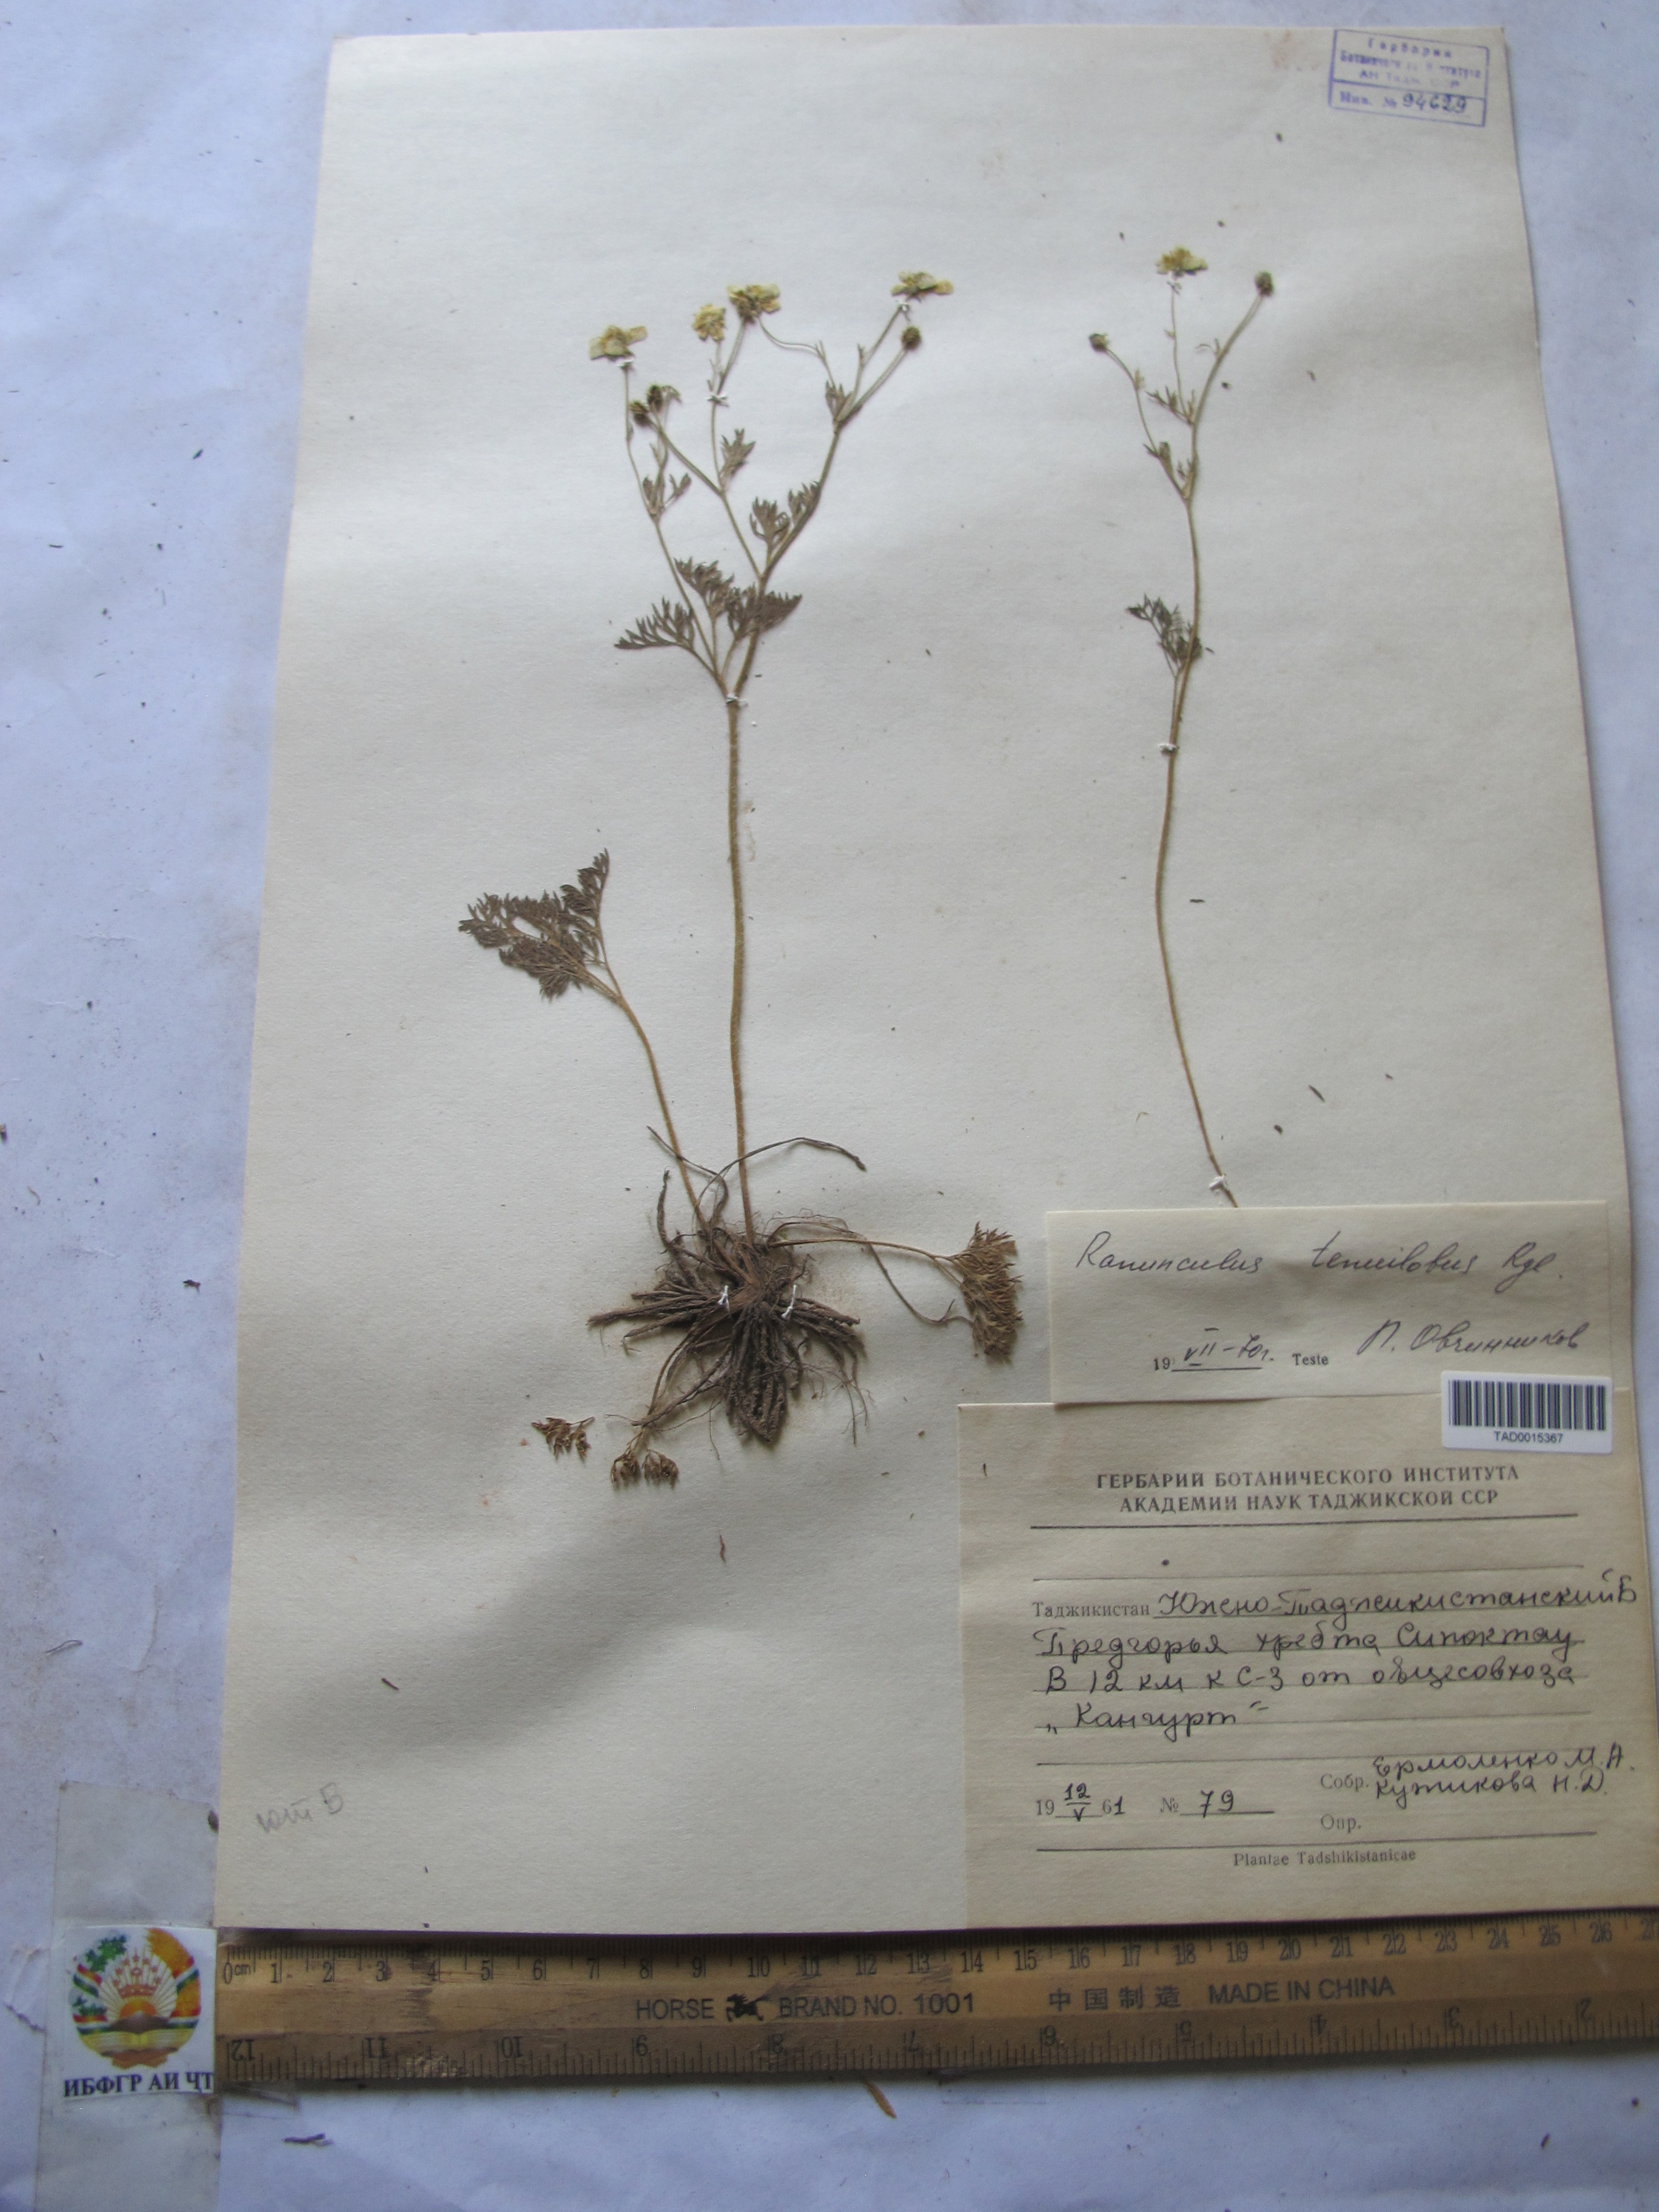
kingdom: Plantae
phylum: Tracheophyta
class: Magnoliopsida
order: Ranunculales
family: Ranunculaceae
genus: Ranunculus
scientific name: Ranunculus tenuilobus
